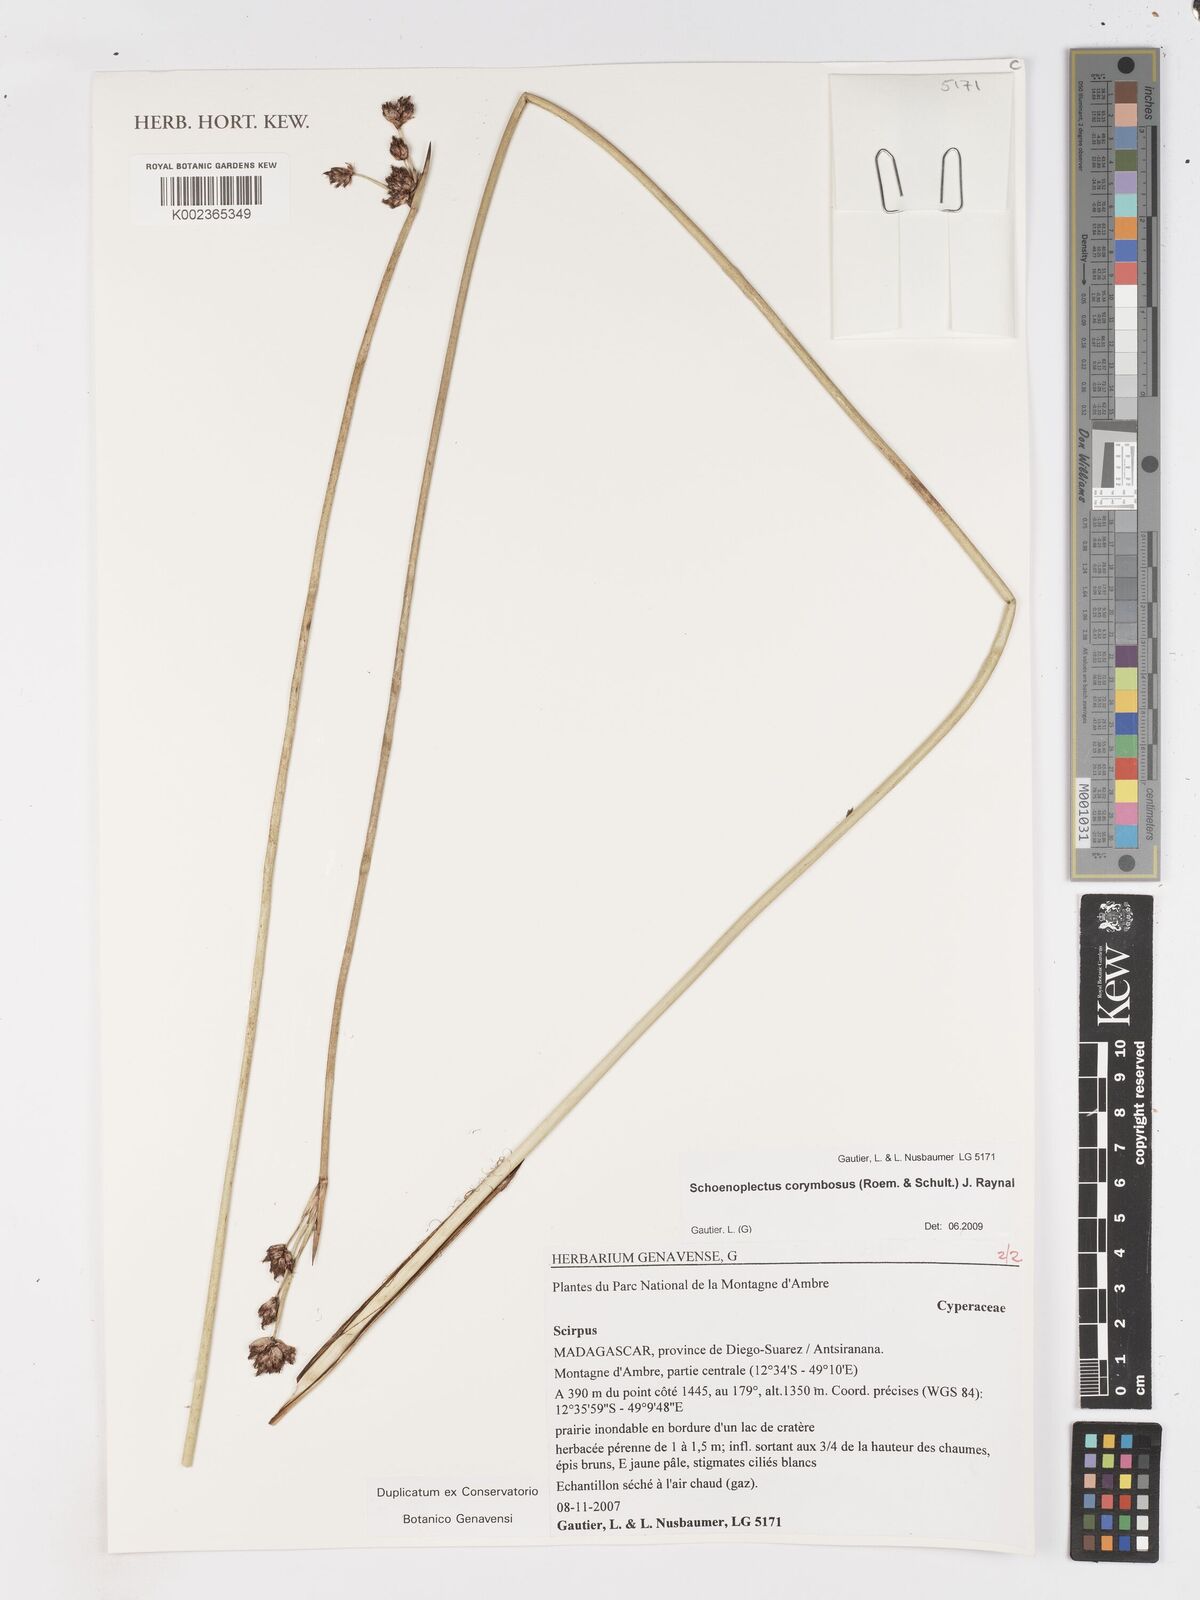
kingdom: Plantae
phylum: Tracheophyta
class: Liliopsida
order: Poales
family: Cyperaceae
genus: Schoenoplectiella
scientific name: Schoenoplectiella brachyceras
